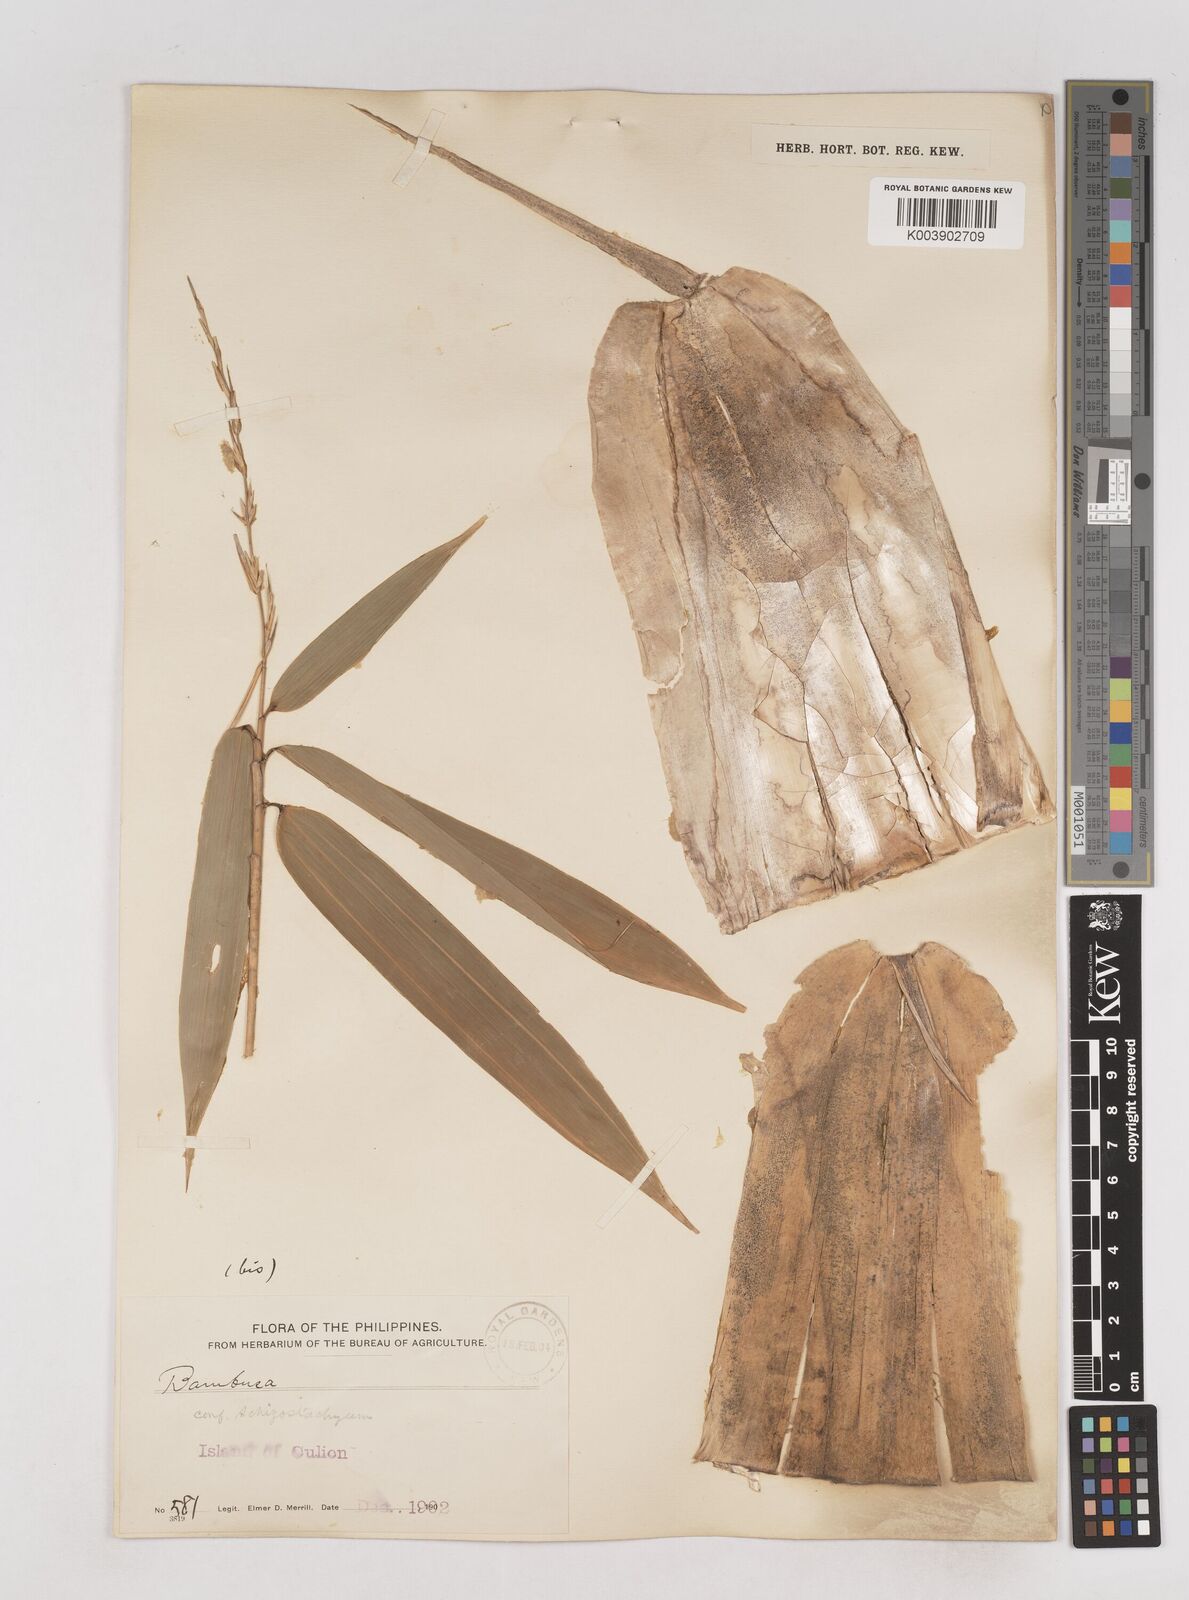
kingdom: Plantae
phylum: Tracheophyta
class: Liliopsida
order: Poales
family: Poaceae
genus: Schizostachyum
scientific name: Schizostachyum
